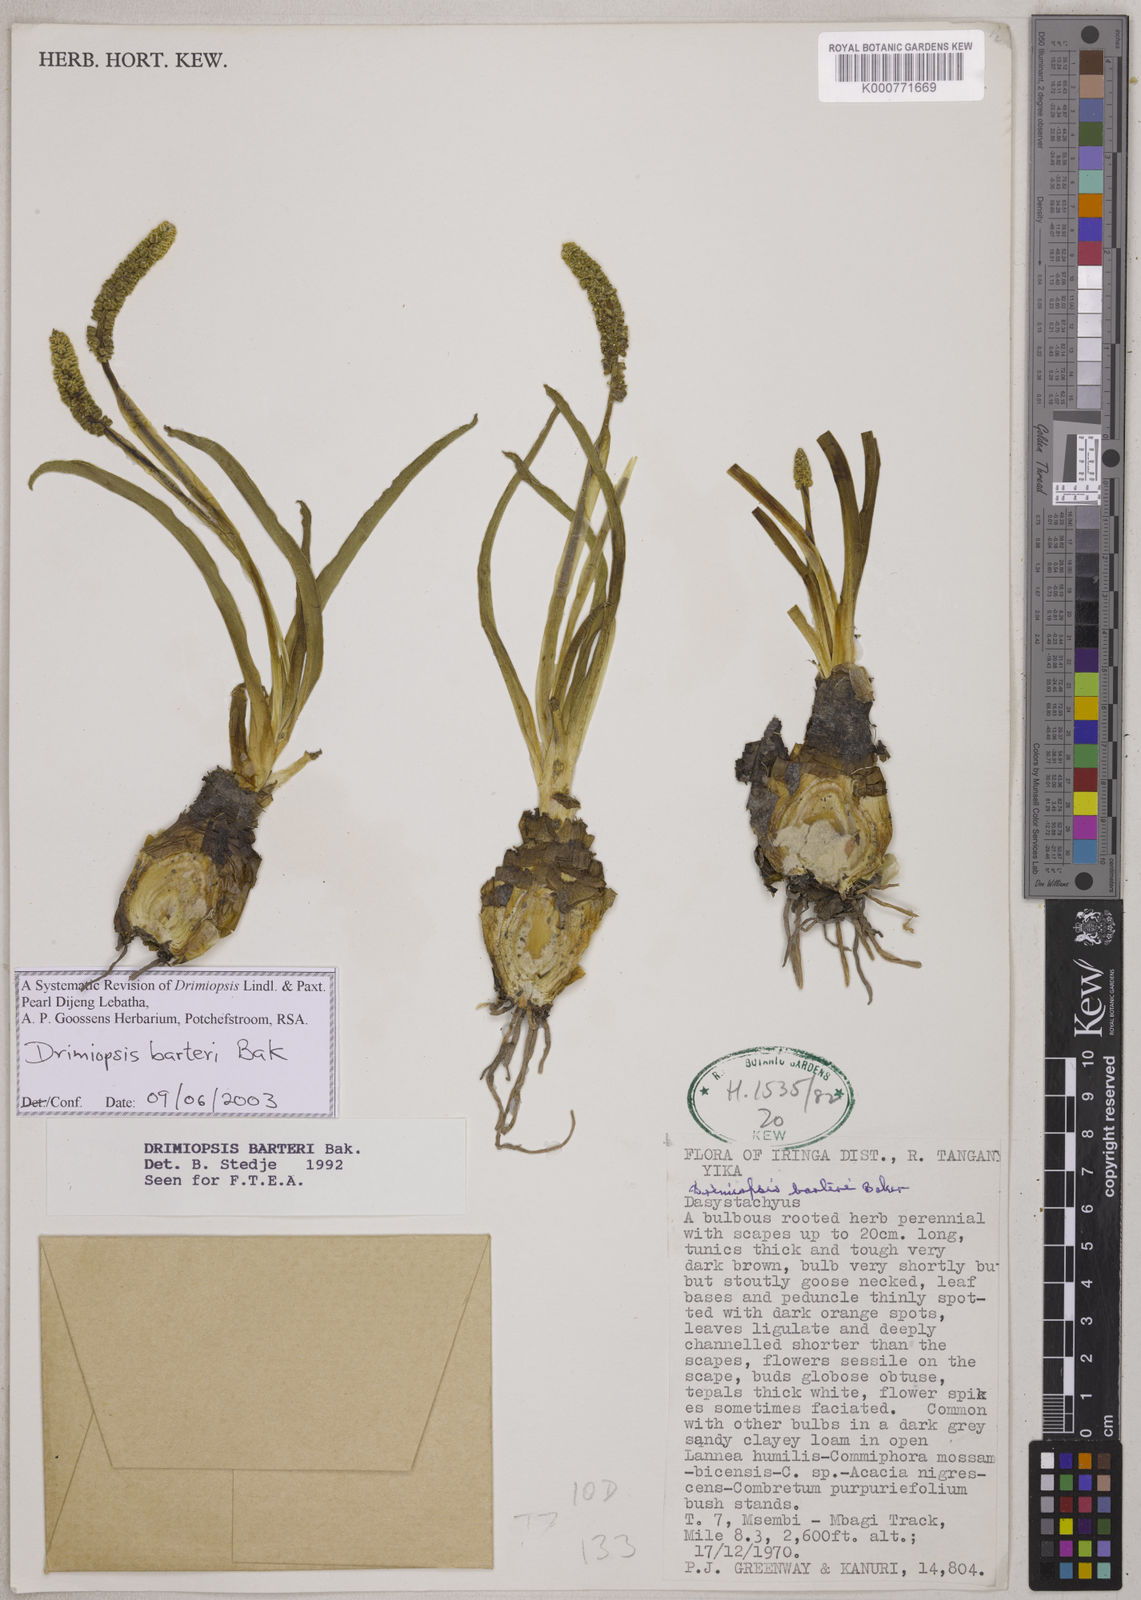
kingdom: Plantae
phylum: Tracheophyta
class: Liliopsida
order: Asparagales
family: Asparagaceae
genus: Drimiopsis
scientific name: Drimiopsis barteri
